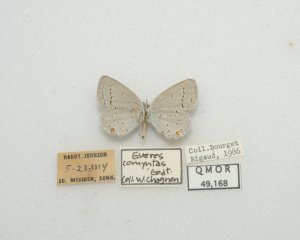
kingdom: Animalia
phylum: Arthropoda
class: Insecta
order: Lepidoptera
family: Lycaenidae
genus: Elkalyce
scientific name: Elkalyce comyntas
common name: Eastern Tailed-Blue
